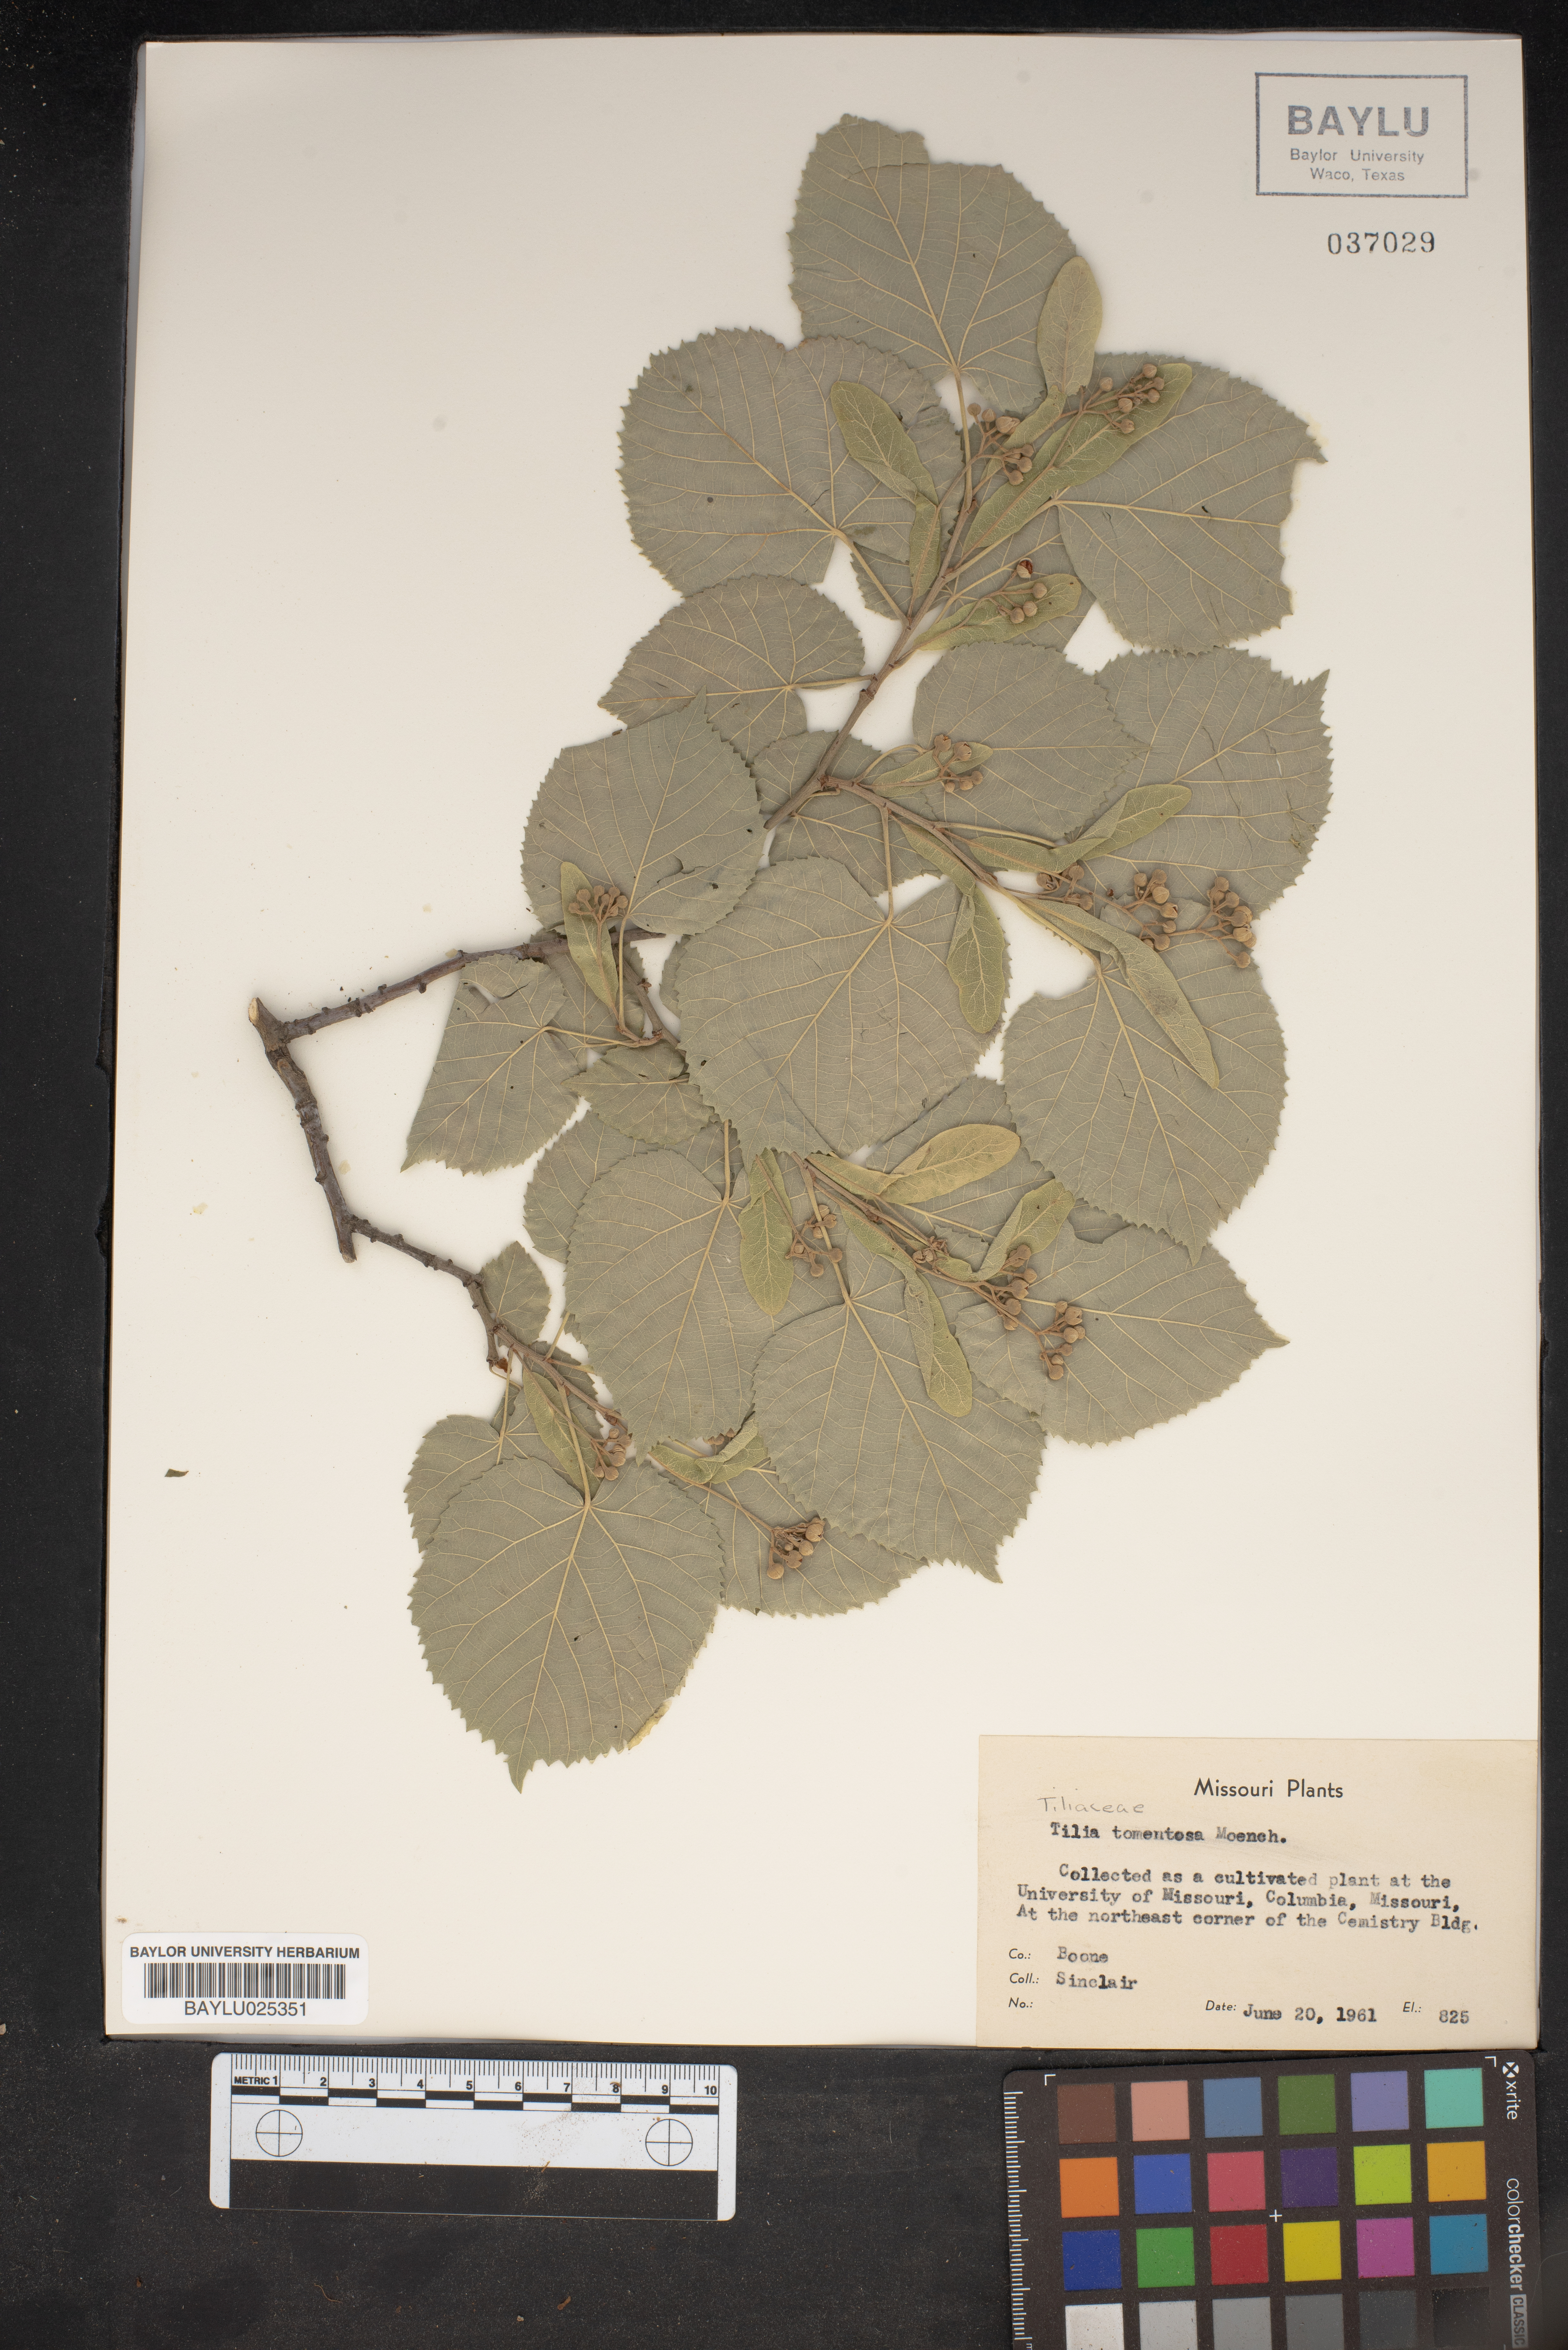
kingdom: Plantae
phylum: Tracheophyta
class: Magnoliopsida
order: Malvales
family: Malvaceae
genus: Tilia
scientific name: Tilia tomentosa
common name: Silver lime
